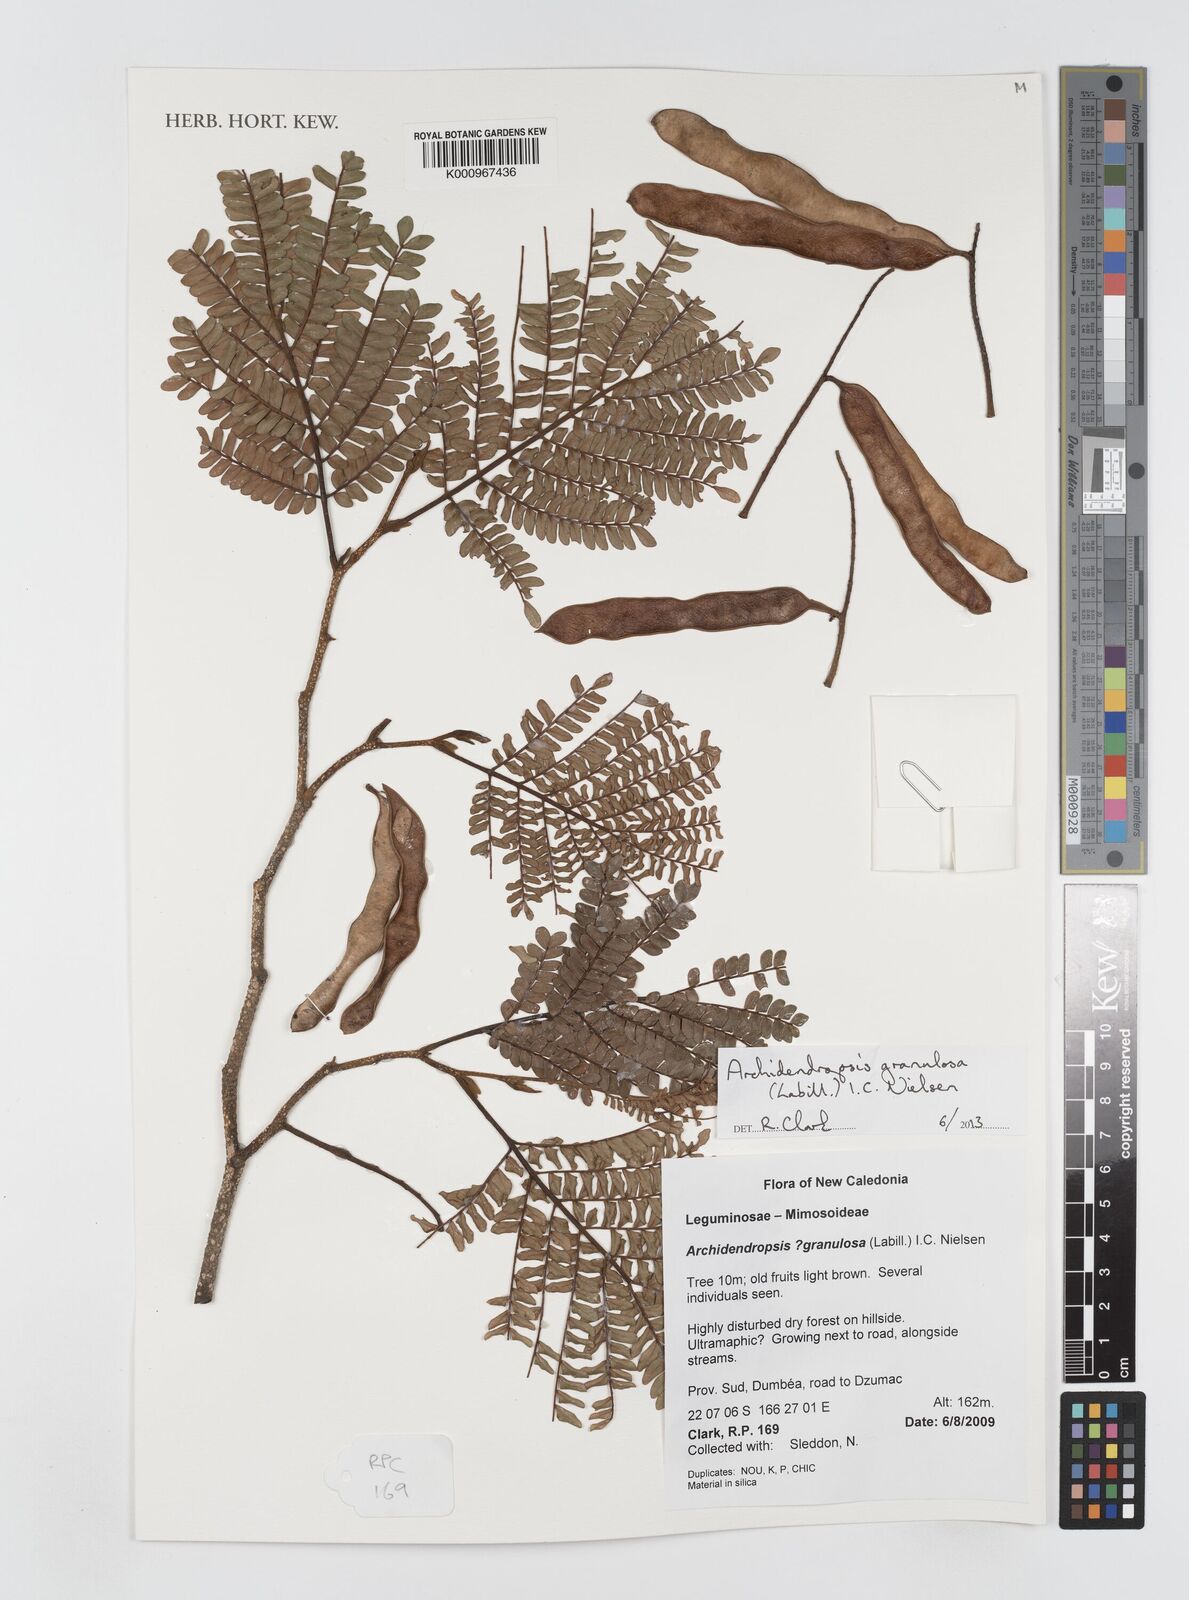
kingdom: Plantae
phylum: Tracheophyta
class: Magnoliopsida
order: Fabales
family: Fabaceae
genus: Archidendropsis
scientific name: Archidendropsis granulosa
